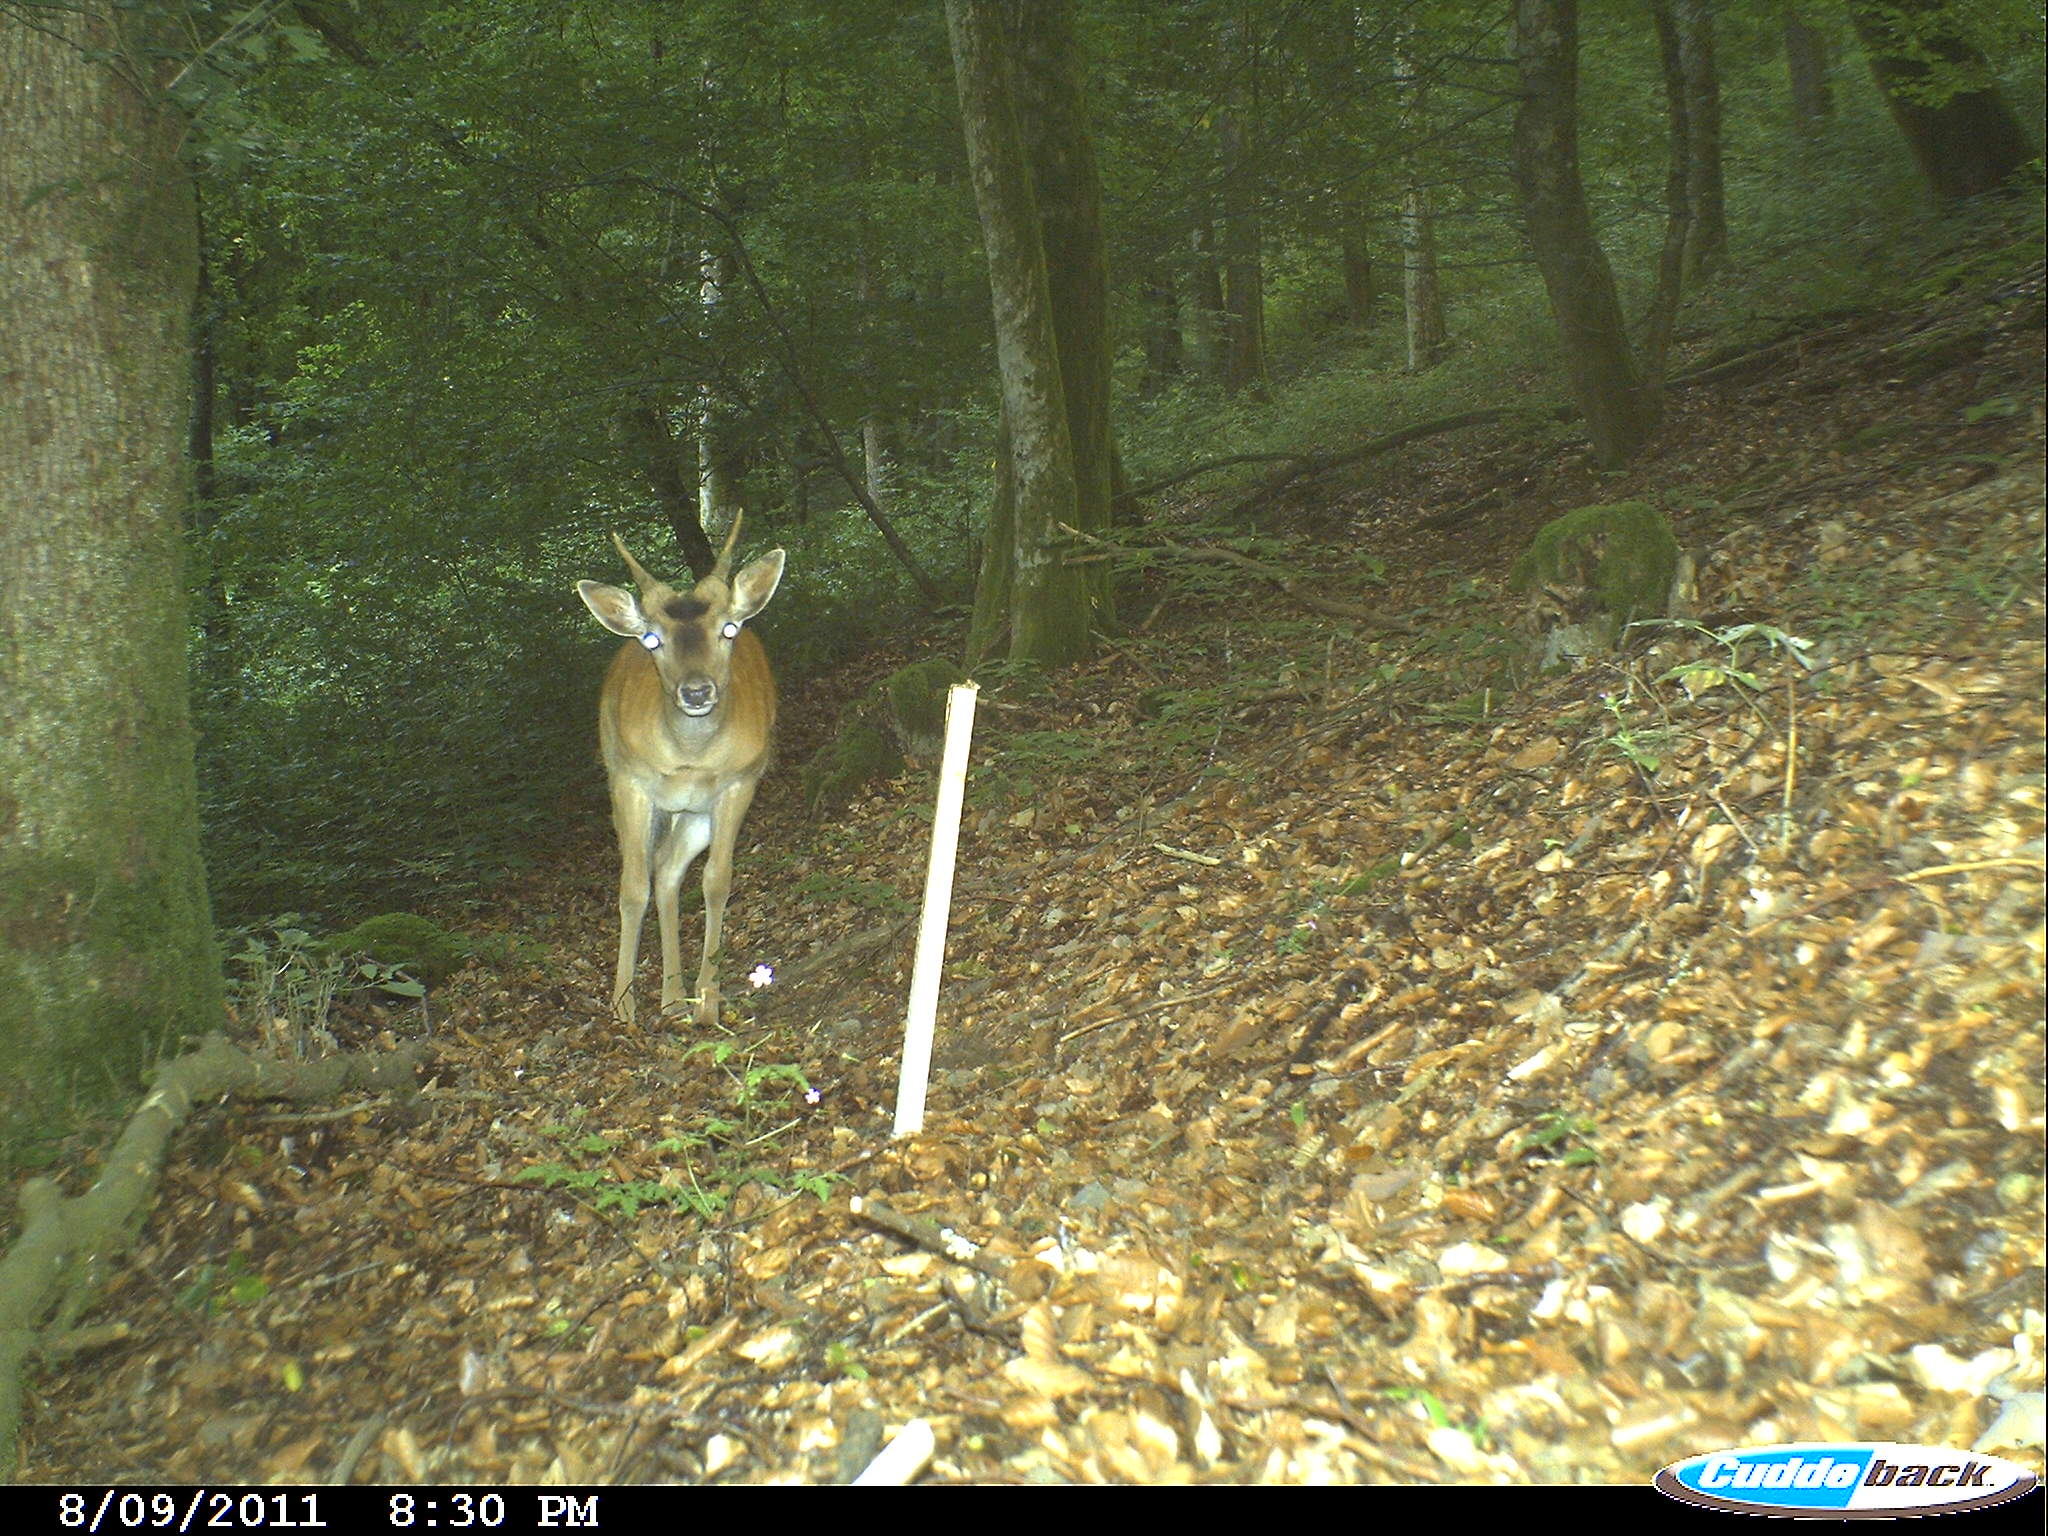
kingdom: Animalia
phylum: Chordata
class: Mammalia
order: Artiodactyla
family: Cervidae
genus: Dama
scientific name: Dama dama
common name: Fallow deer
